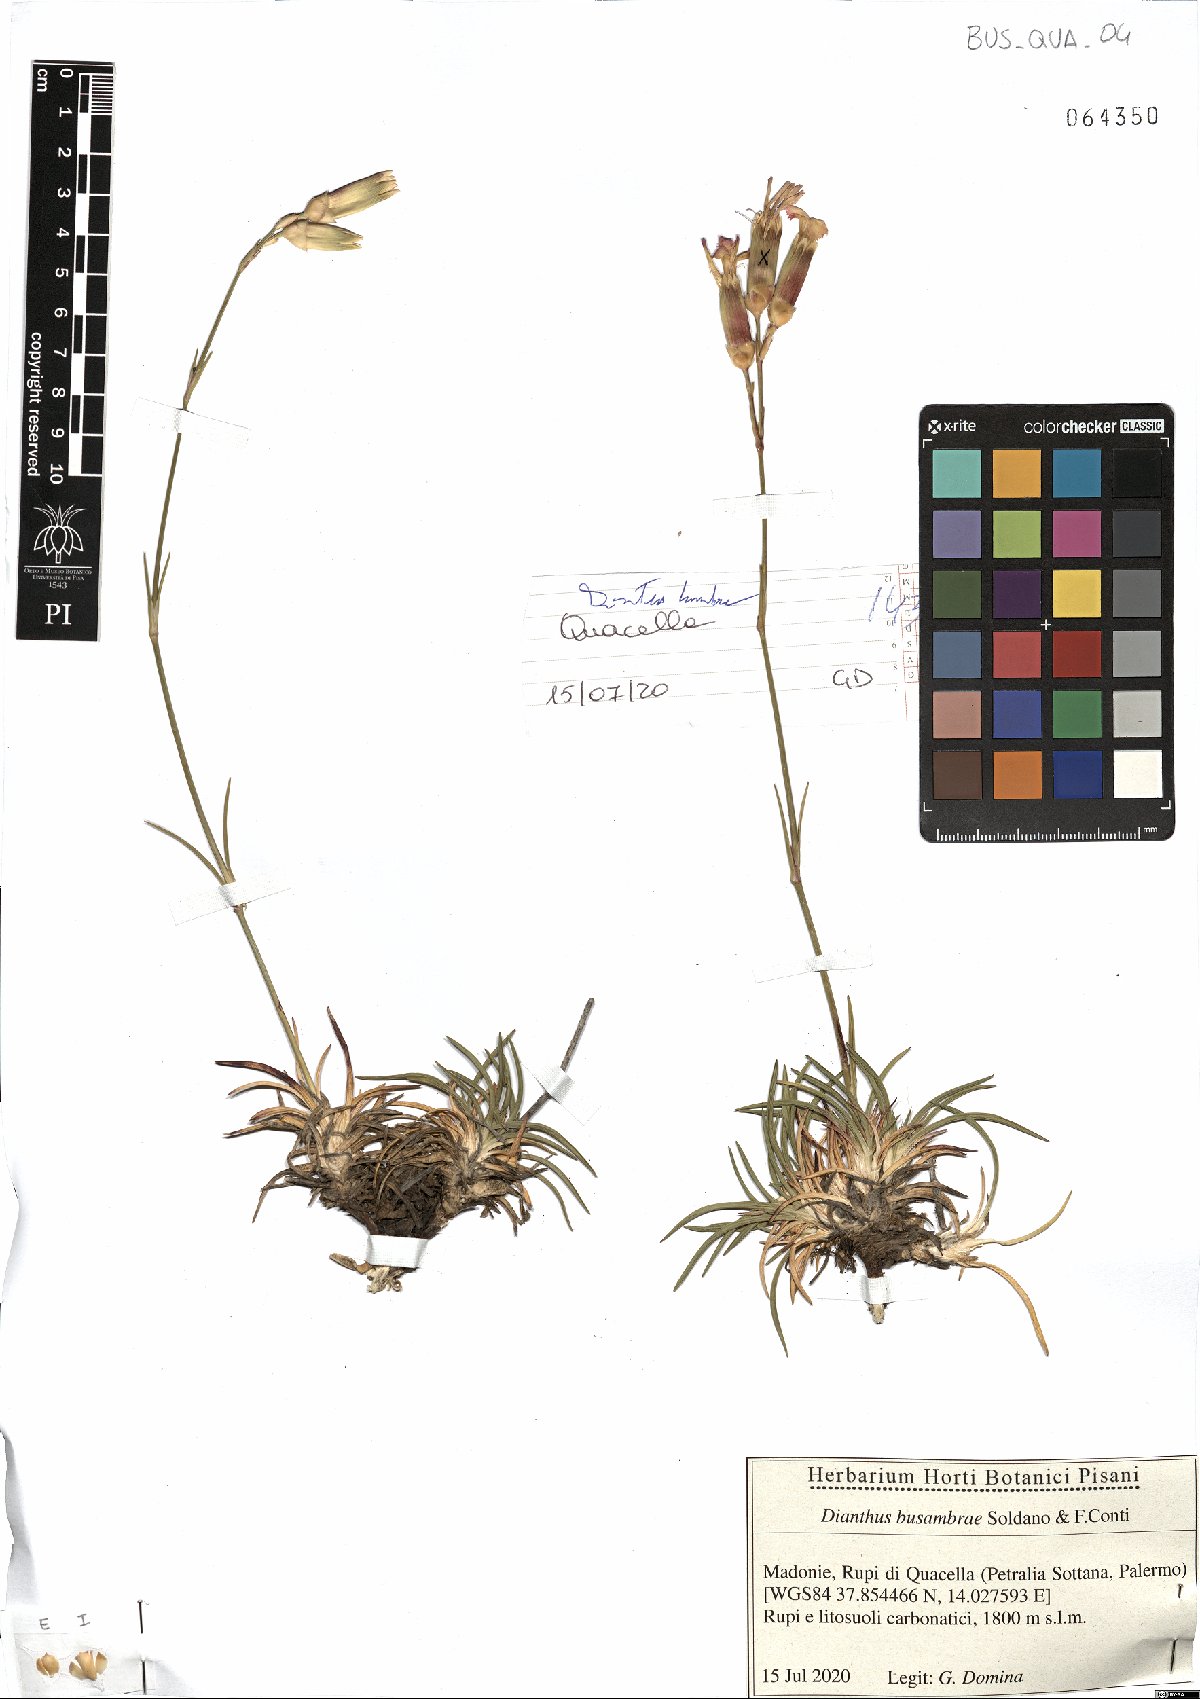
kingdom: Plantae
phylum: Tracheophyta
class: Magnoliopsida
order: Caryophyllales
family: Caryophyllaceae
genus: Dianthus
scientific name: Dianthus busambrae
